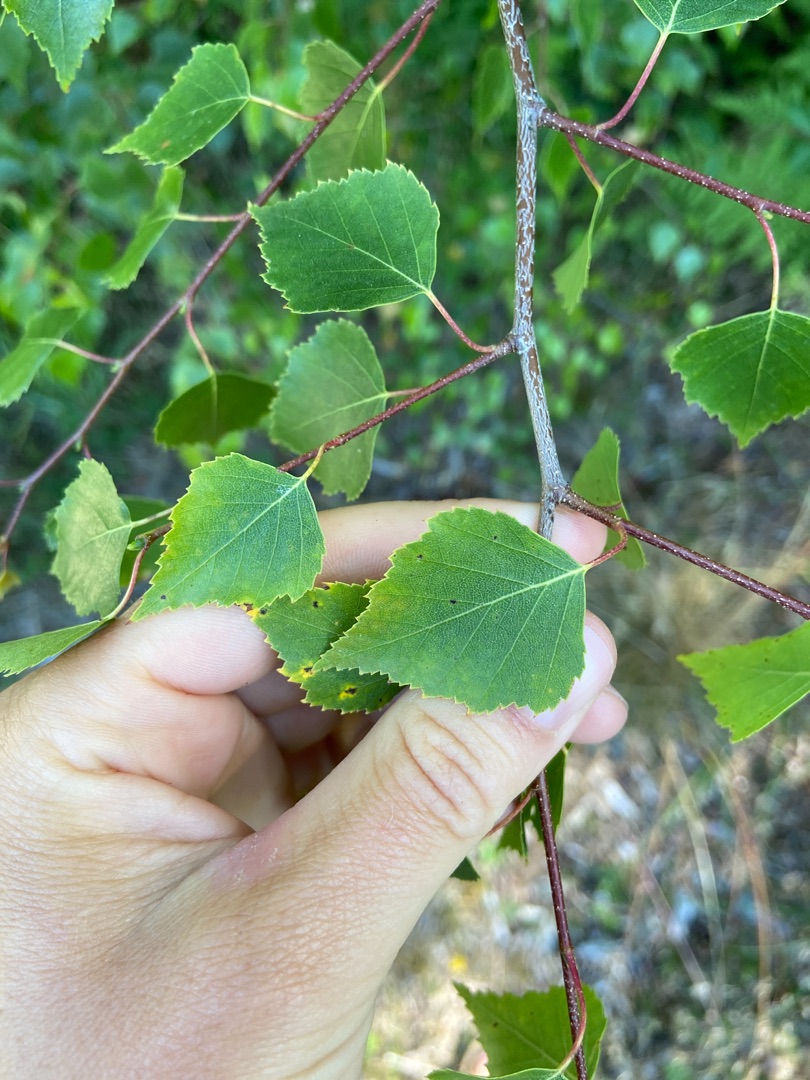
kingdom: Plantae
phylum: Tracheophyta
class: Magnoliopsida
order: Fagales
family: Betulaceae
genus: Betula
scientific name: Betula pendula
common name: Vorte-birk
